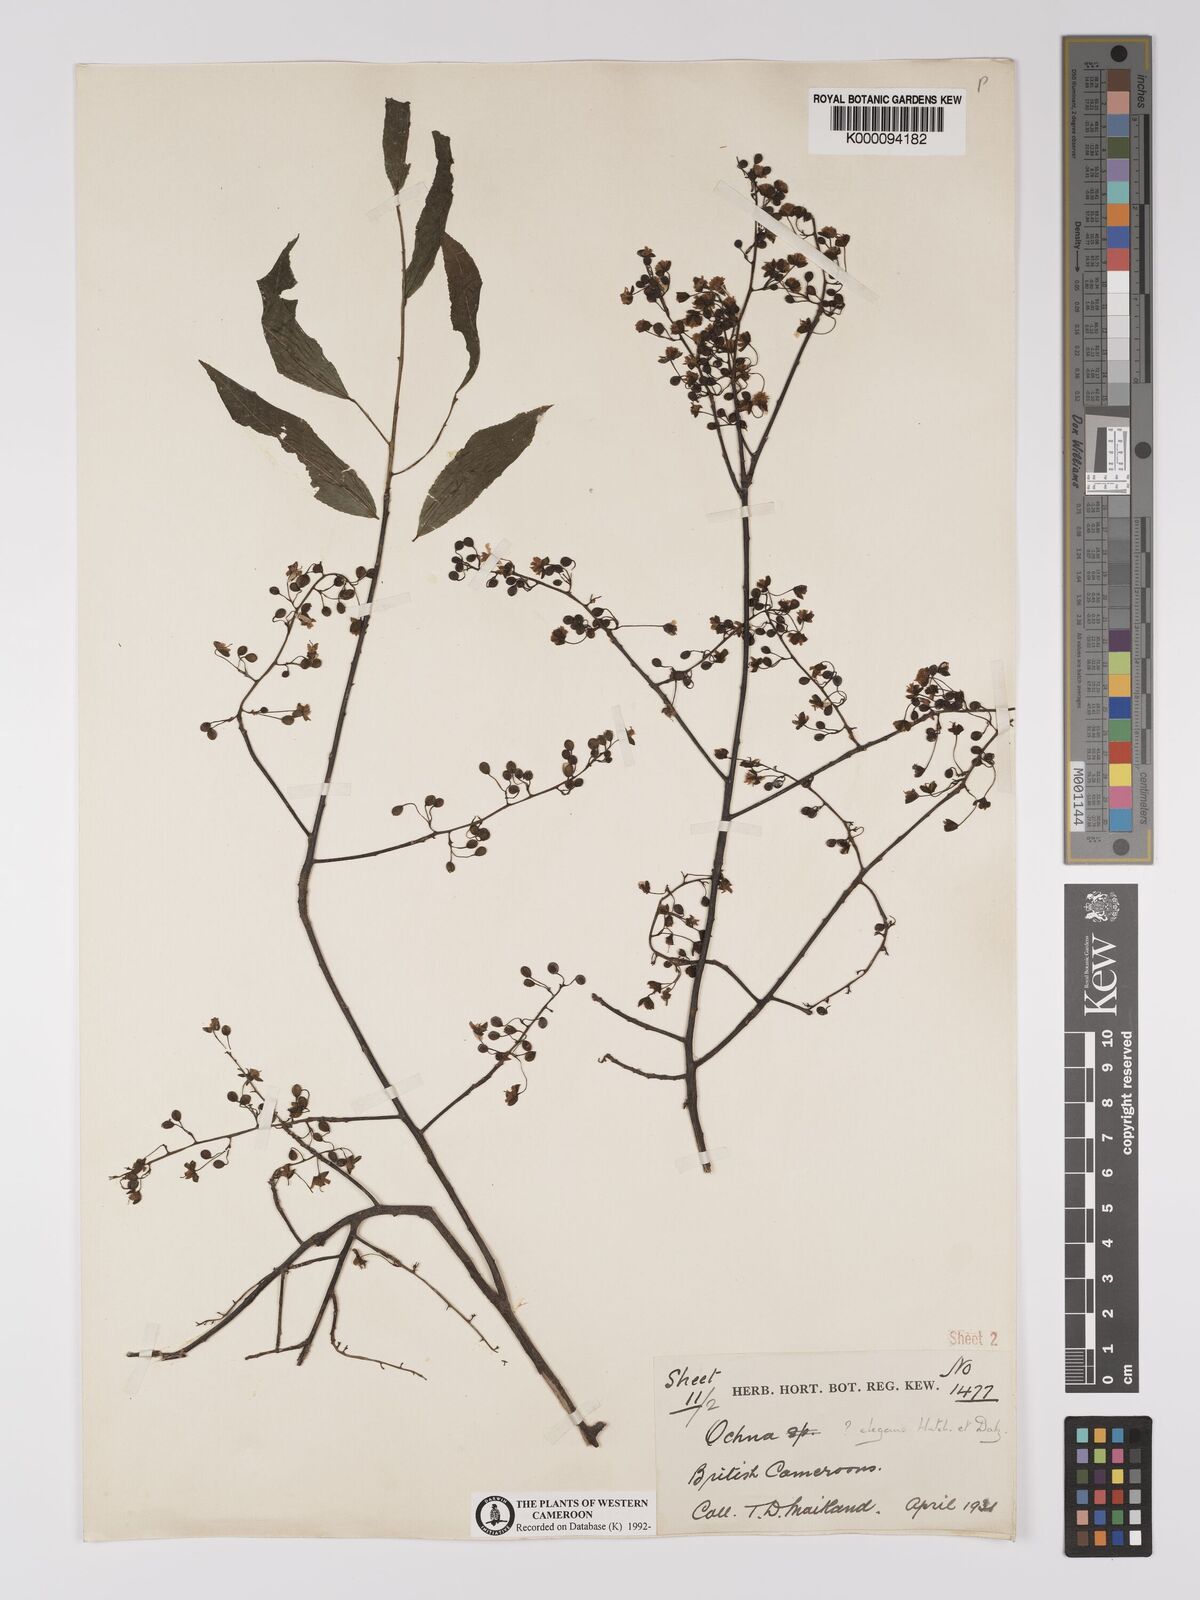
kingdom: Plantae
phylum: Tracheophyta
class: Magnoliopsida
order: Malpighiales
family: Ochnaceae
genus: Ochna
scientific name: Ochna membranacea
